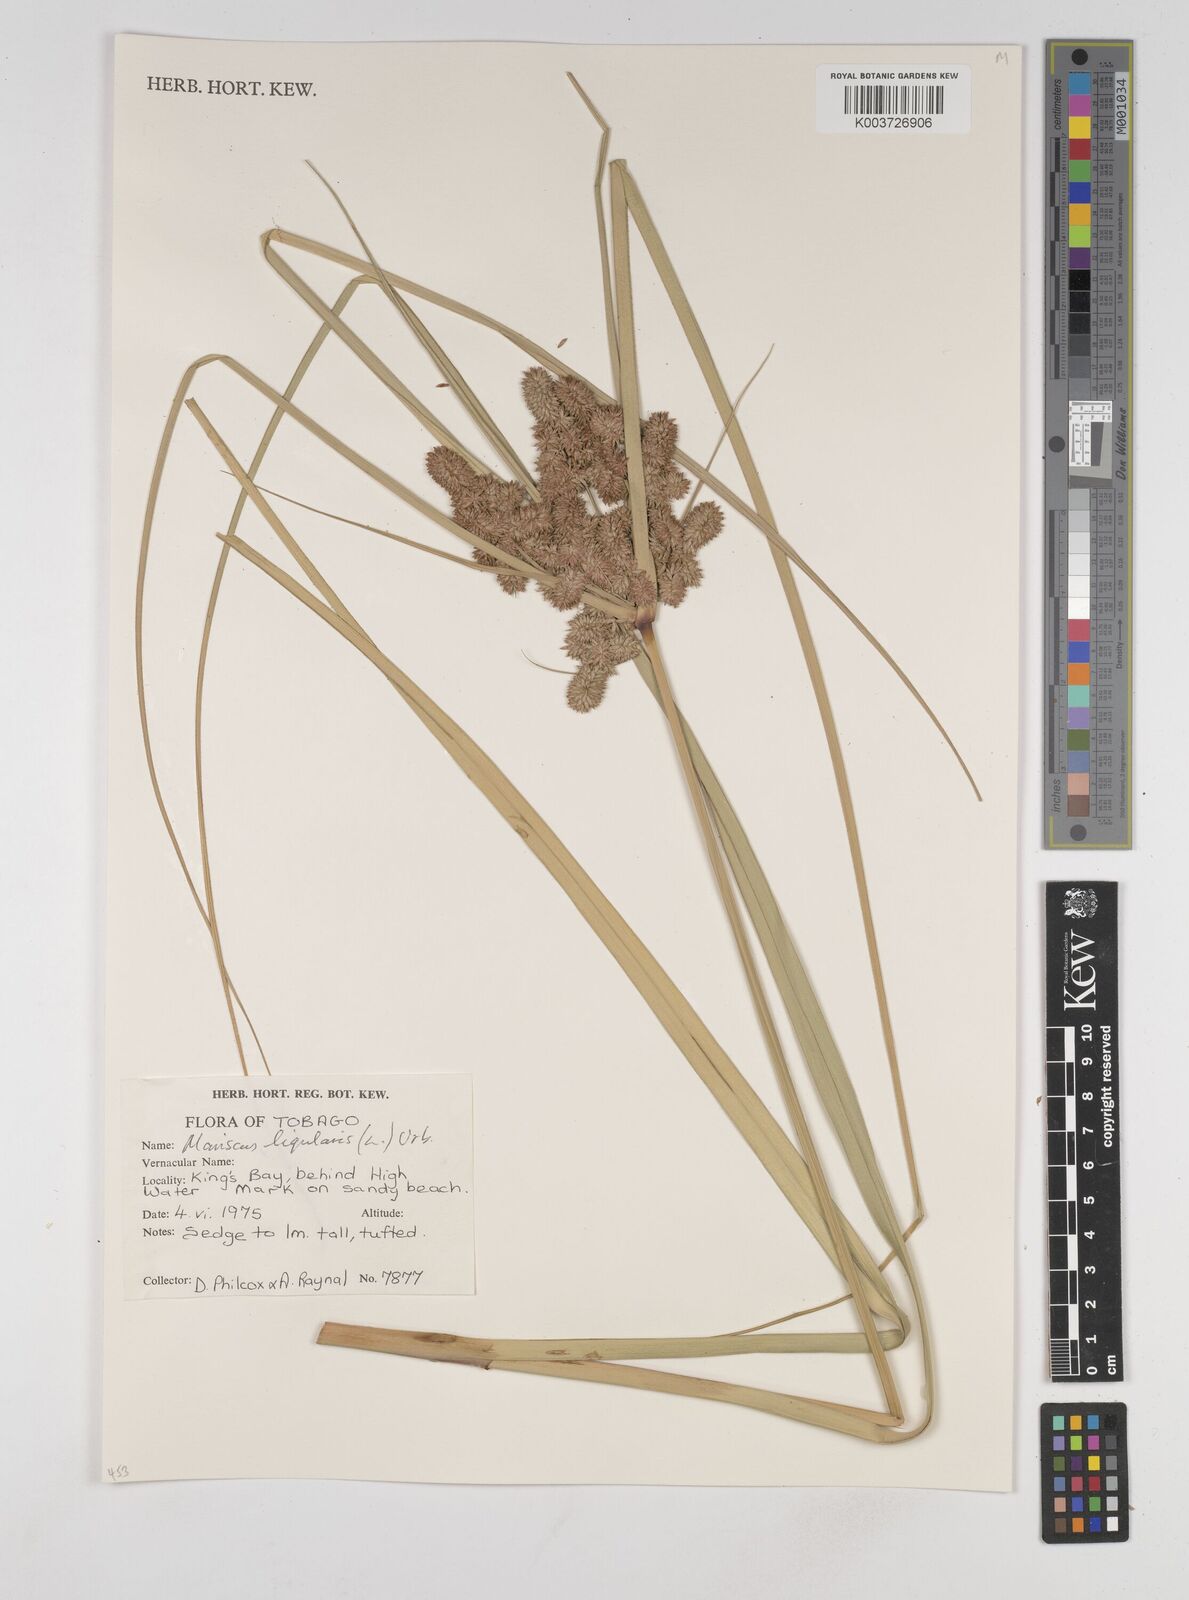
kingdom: Plantae
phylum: Tracheophyta
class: Liliopsida
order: Poales
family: Cyperaceae
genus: Cyperus
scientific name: Cyperus ligularis
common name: Swamp flat sedge
